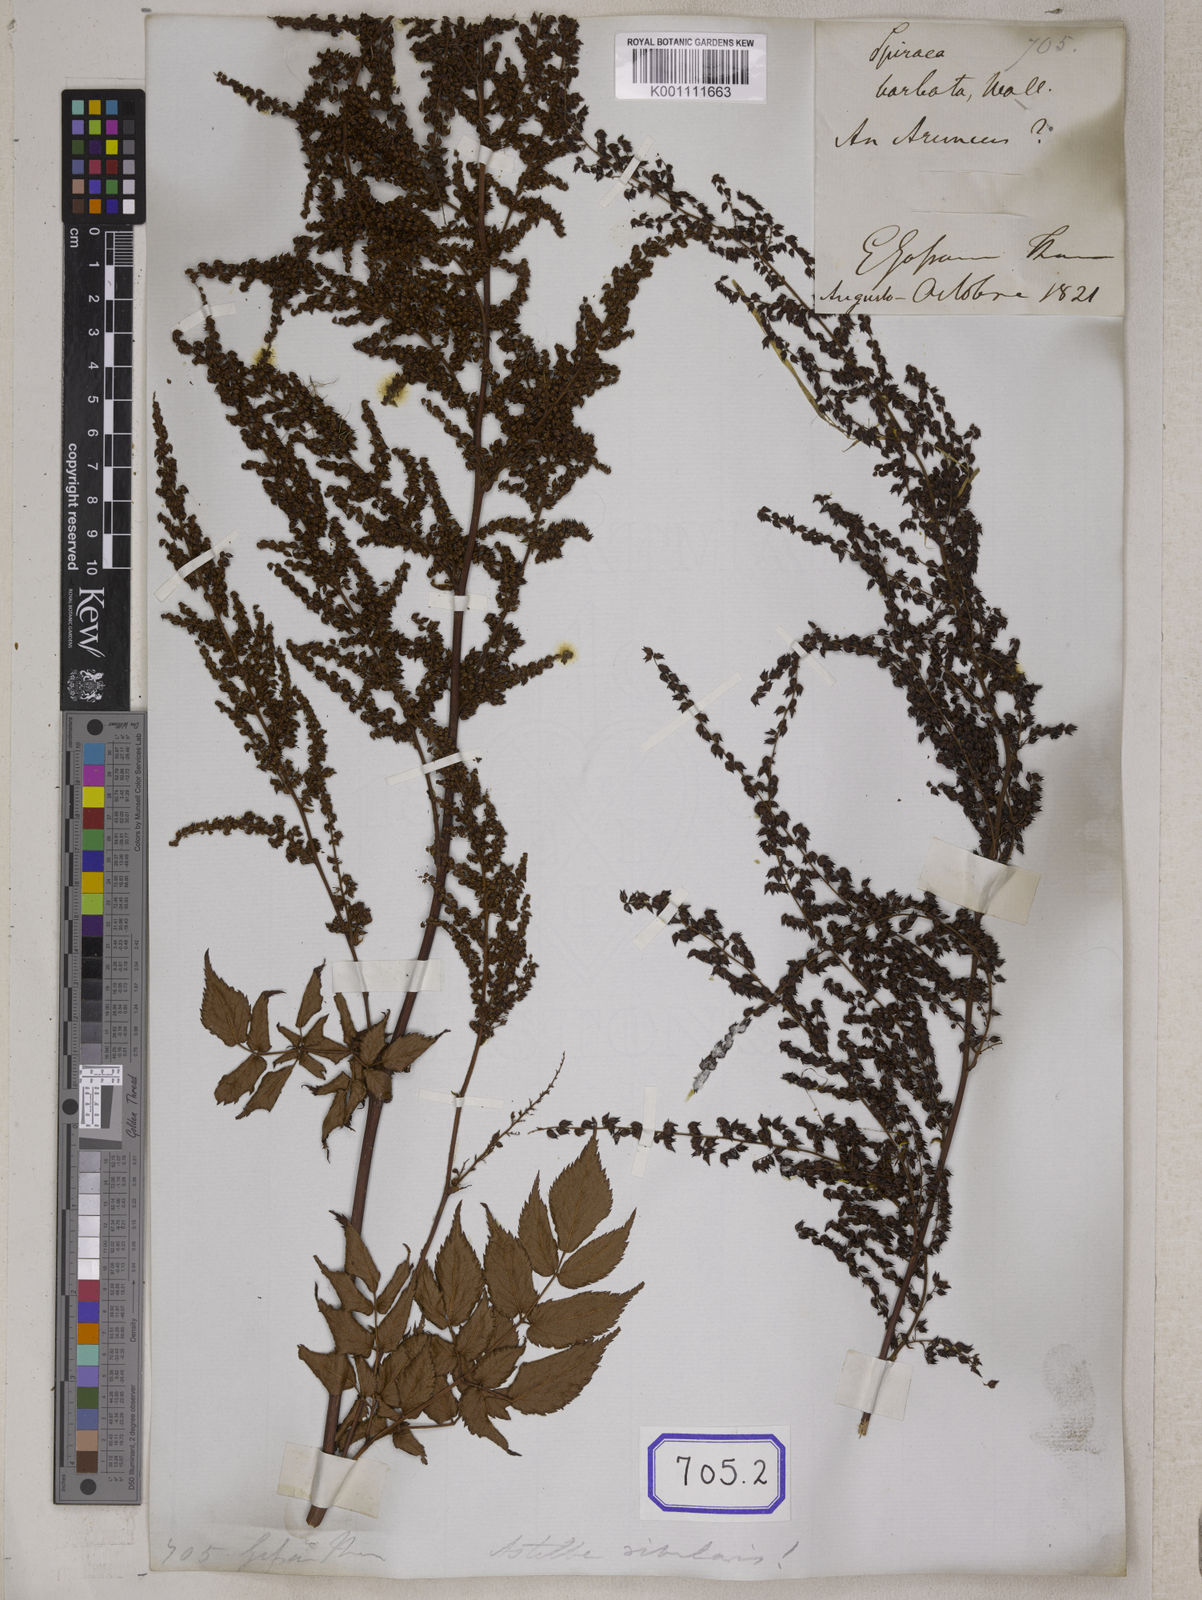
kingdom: Plantae
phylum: Tracheophyta
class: Magnoliopsida
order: Rosales
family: Rosaceae
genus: Spiraea
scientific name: Spiraea
